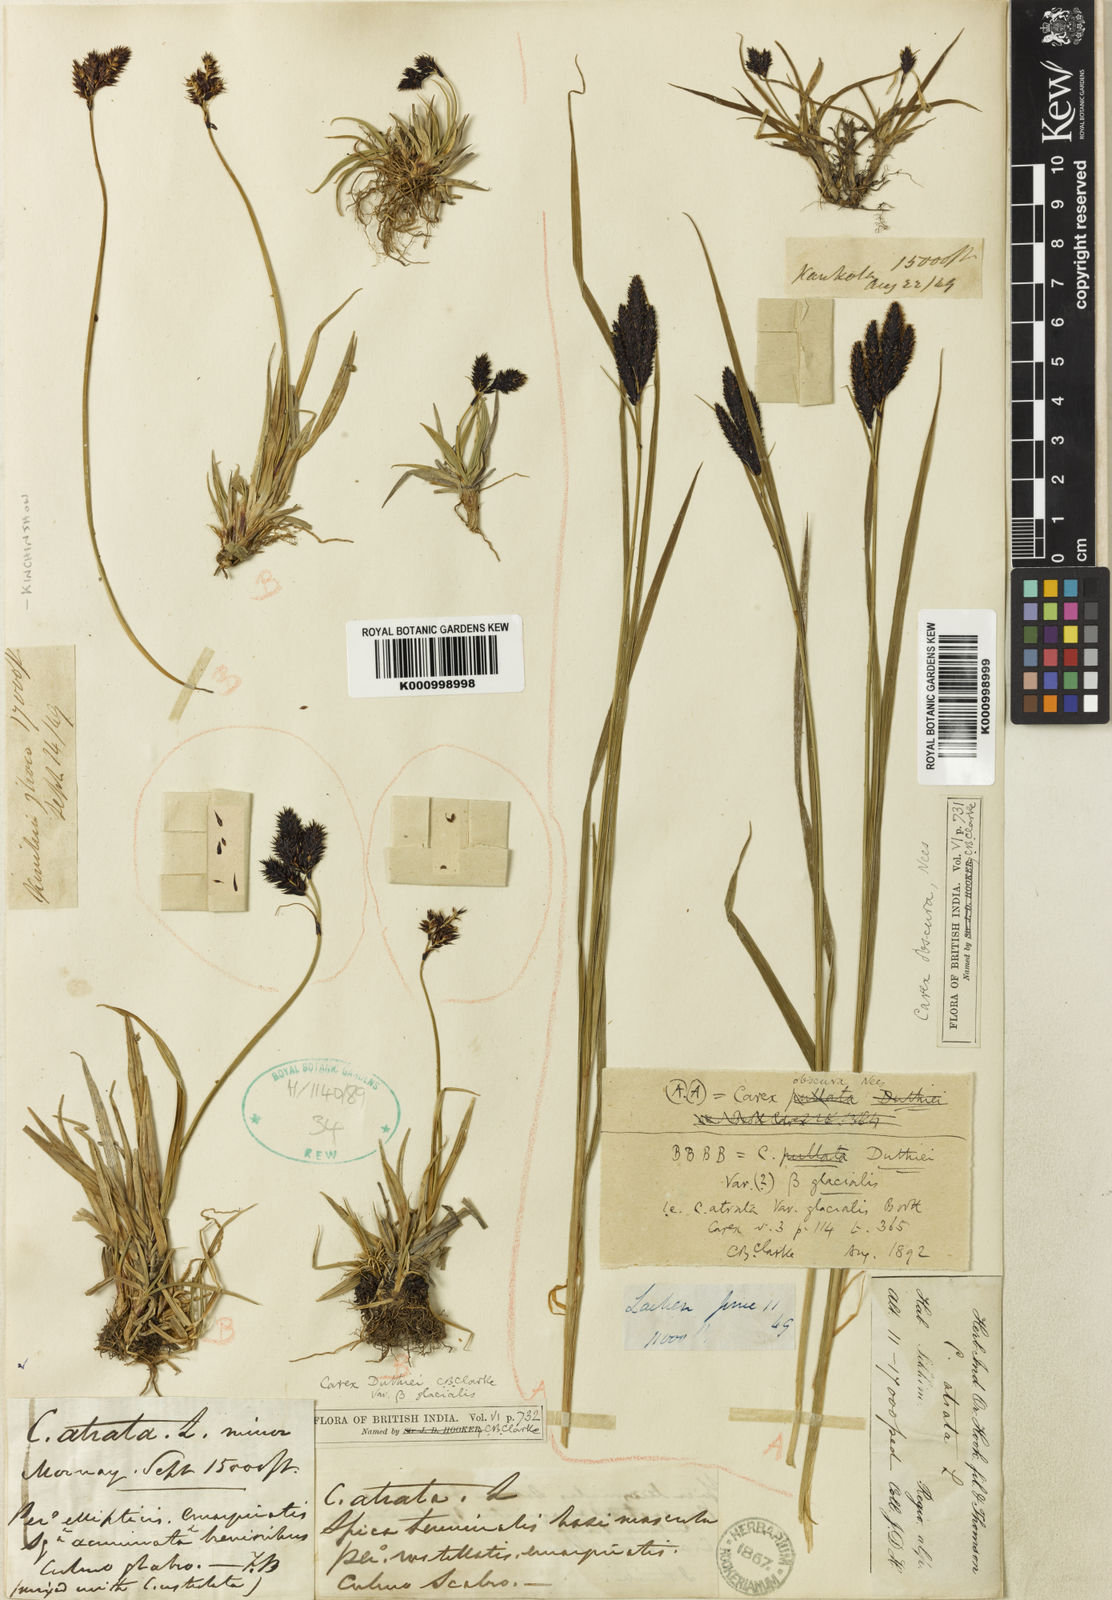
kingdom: Plantae
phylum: Tracheophyta
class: Liliopsida
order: Poales
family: Cyperaceae
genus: Carex
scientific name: Carex gracilenta
